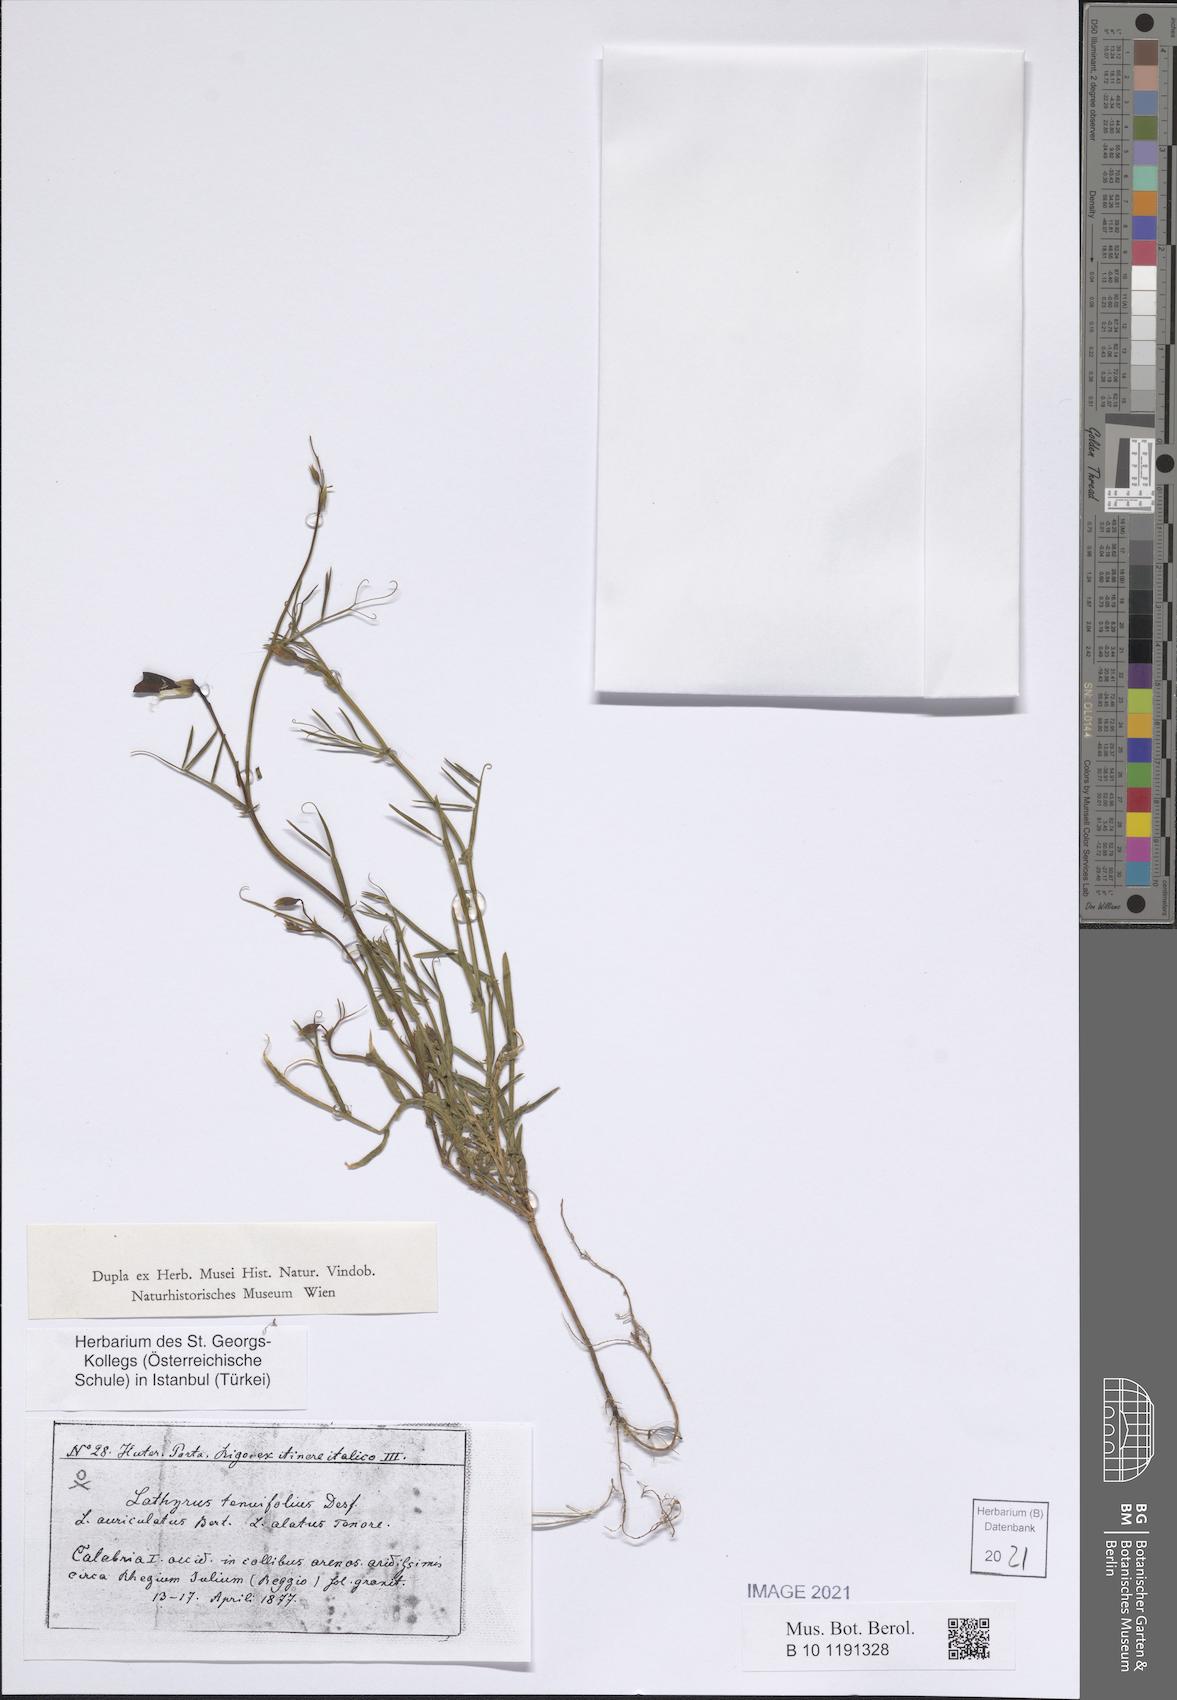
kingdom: Plantae
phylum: Tracheophyta
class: Magnoliopsida
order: Fabales
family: Fabaceae
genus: Lathyrus
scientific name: Lathyrus clymenum
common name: Spanish vetchling
